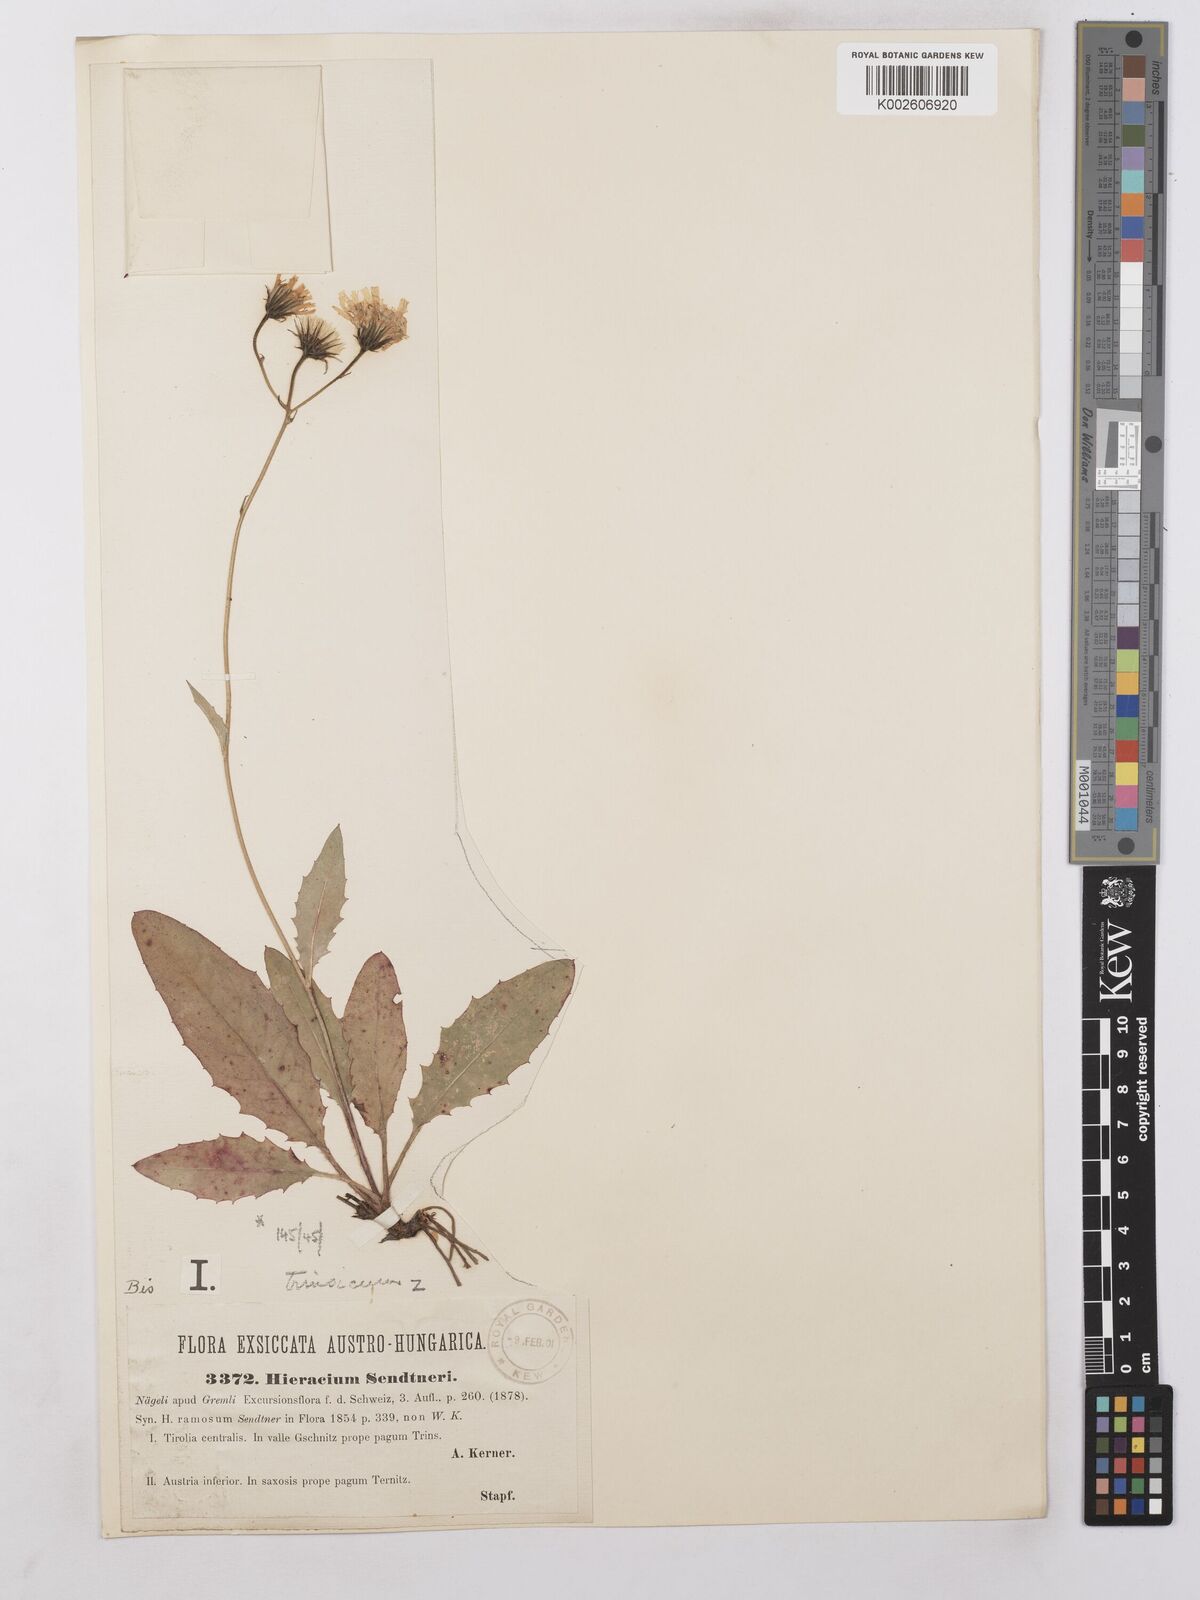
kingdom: Plantae
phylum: Tracheophyta
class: Magnoliopsida
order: Asterales
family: Asteraceae
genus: Hieracium
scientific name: Hieracium levicaule
